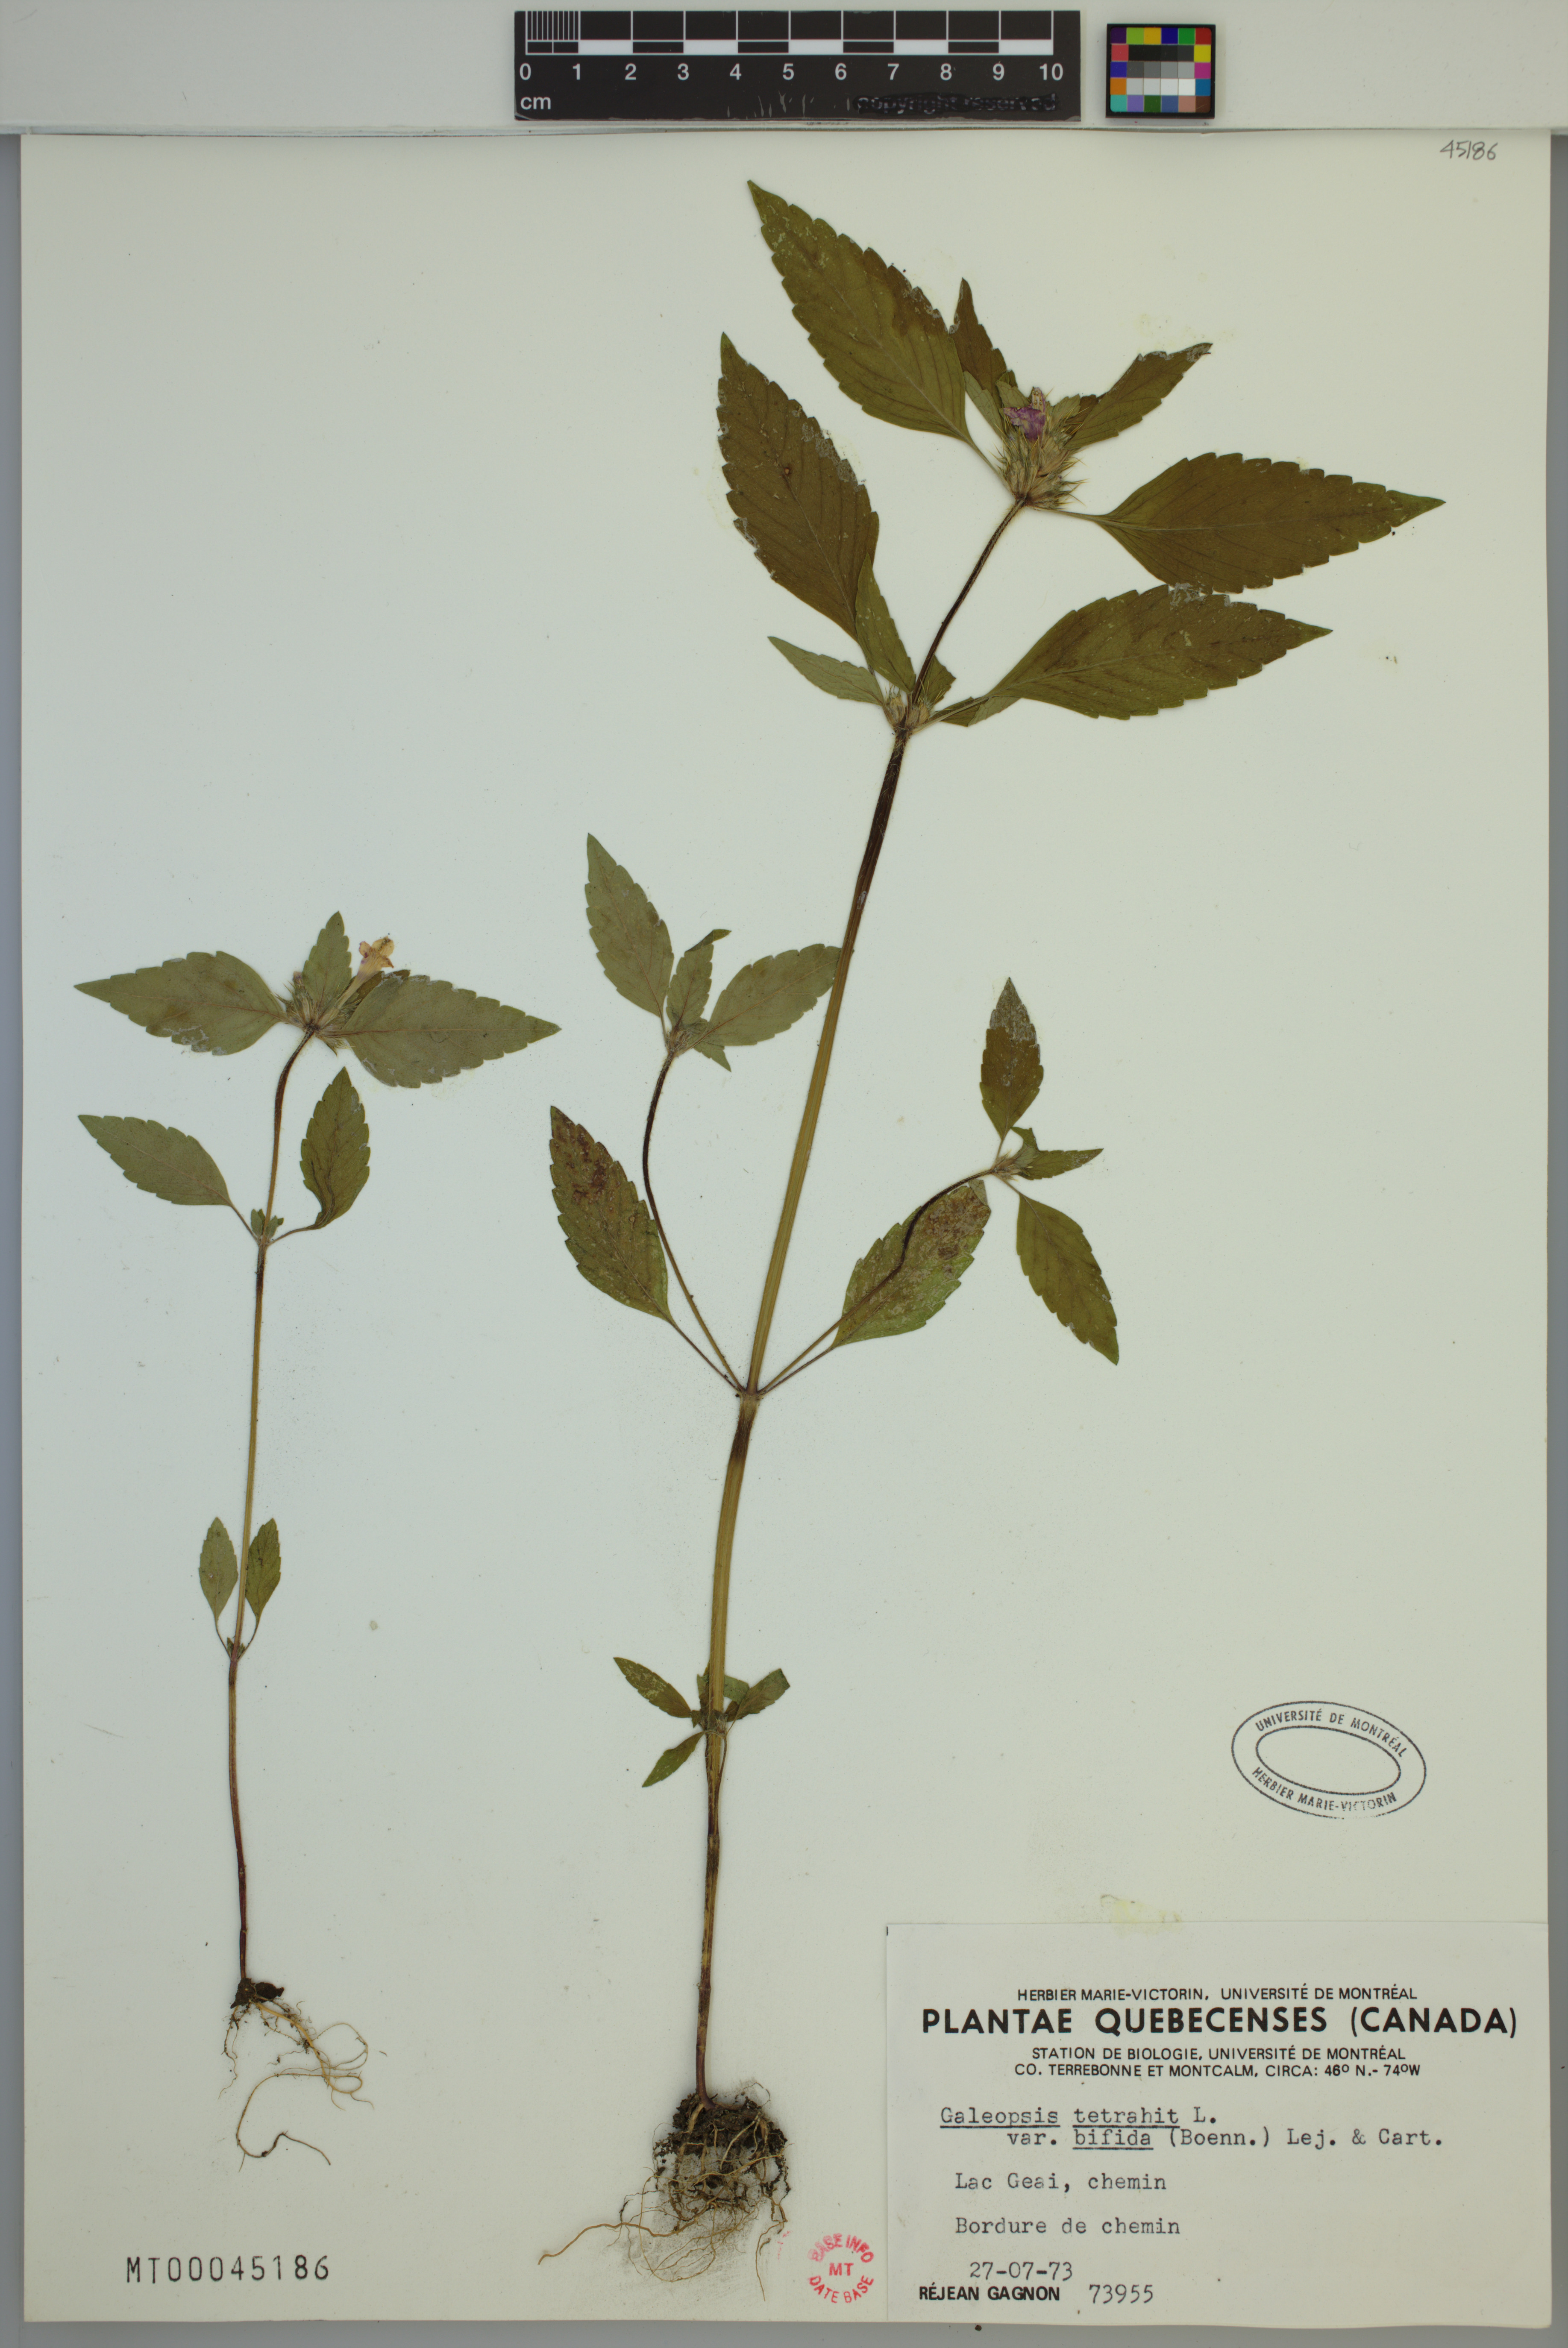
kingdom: Plantae
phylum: Tracheophyta
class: Magnoliopsida
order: Lamiales
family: Lamiaceae
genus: Galeopsis
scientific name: Galeopsis bifida
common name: Bifid hemp-nettle
